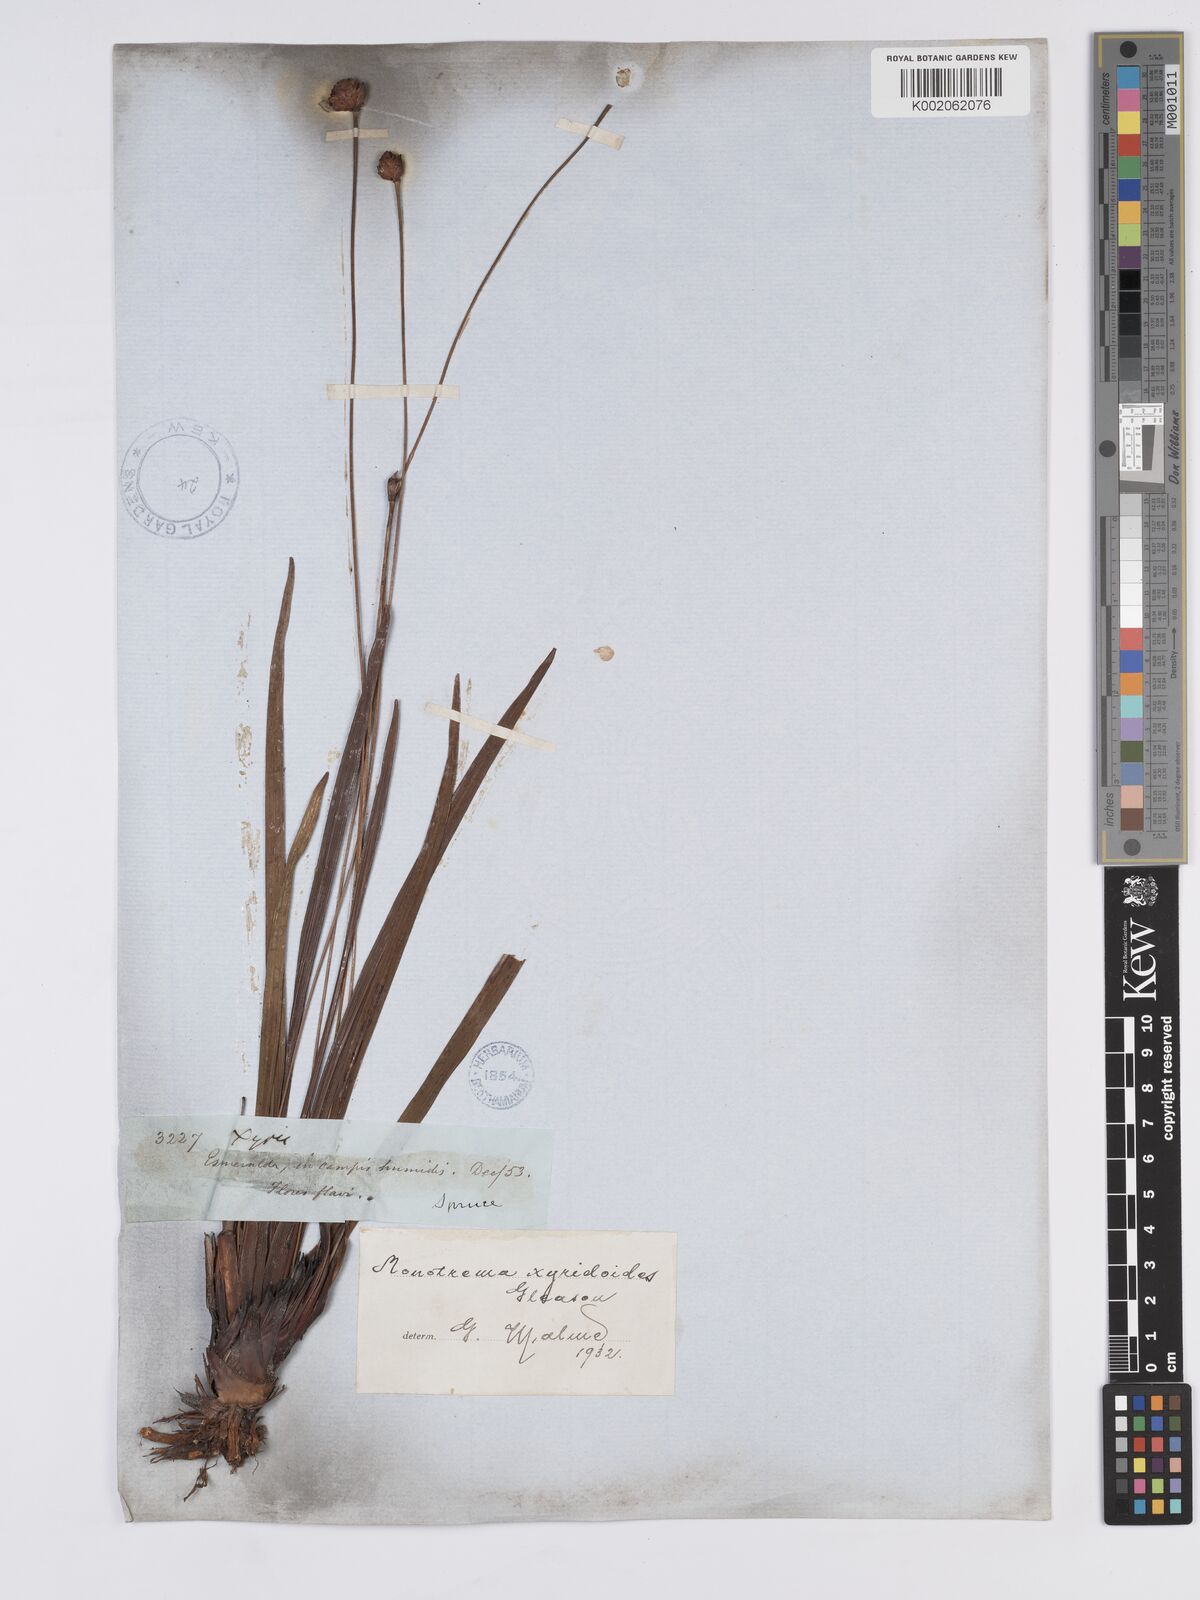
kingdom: Plantae
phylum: Tracheophyta
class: Liliopsida
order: Poales
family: Rapateaceae
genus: Monotrema
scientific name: Monotrema xyridoides
